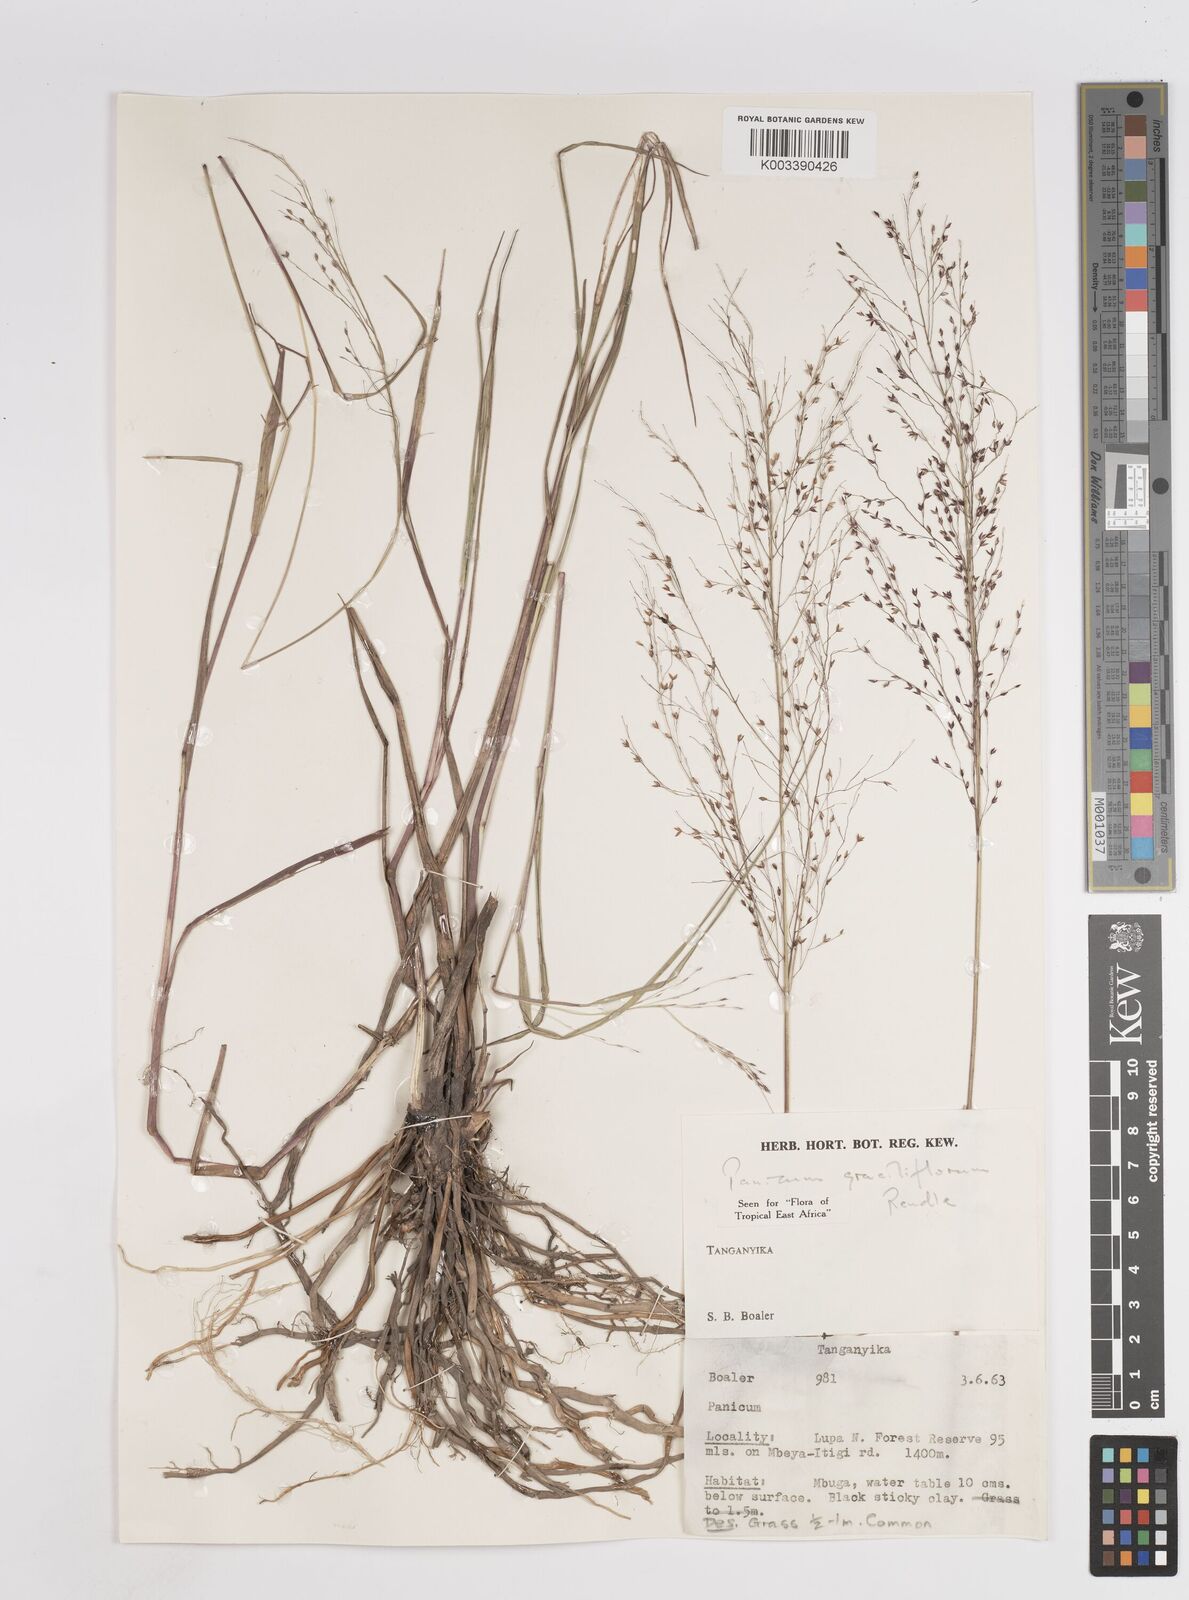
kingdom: Plantae
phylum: Tracheophyta
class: Liliopsida
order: Poales
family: Poaceae
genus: Panicum
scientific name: Panicum fluviicola
